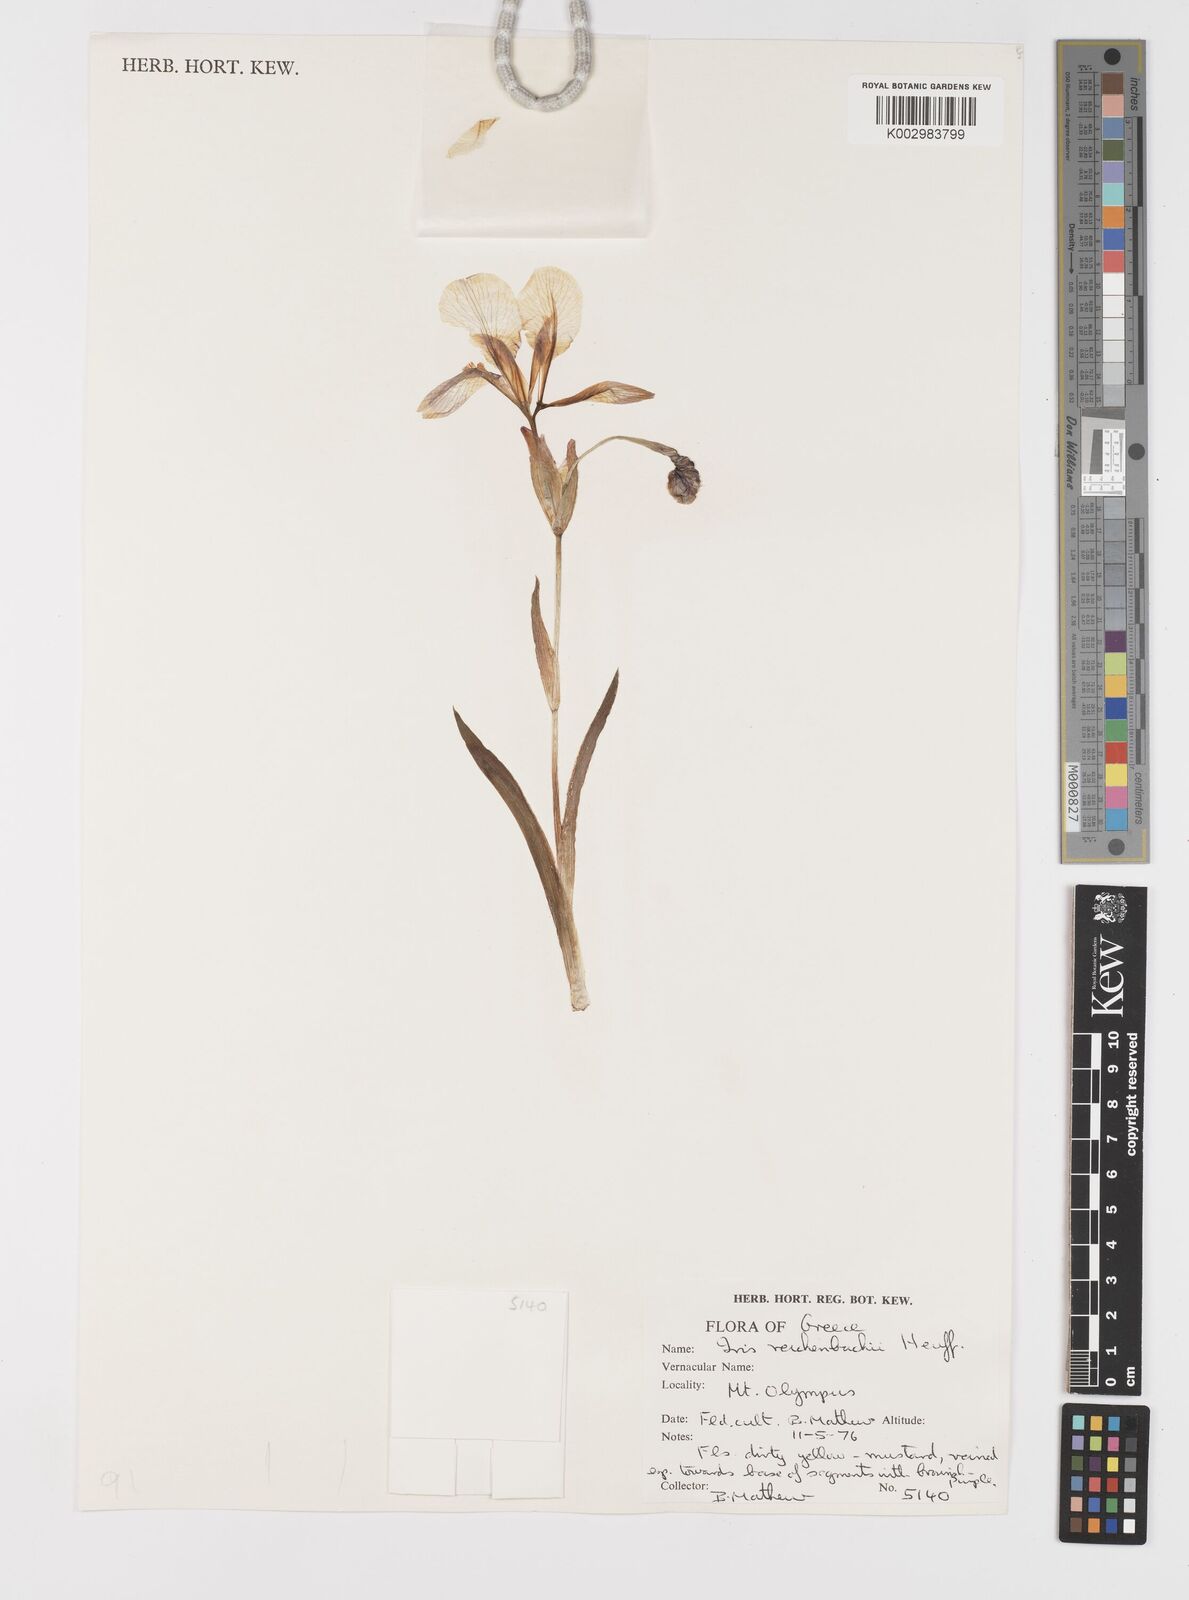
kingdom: Plantae
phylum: Tracheophyta
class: Liliopsida
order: Asparagales
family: Iridaceae
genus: Iris
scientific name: Iris reichenbachii
